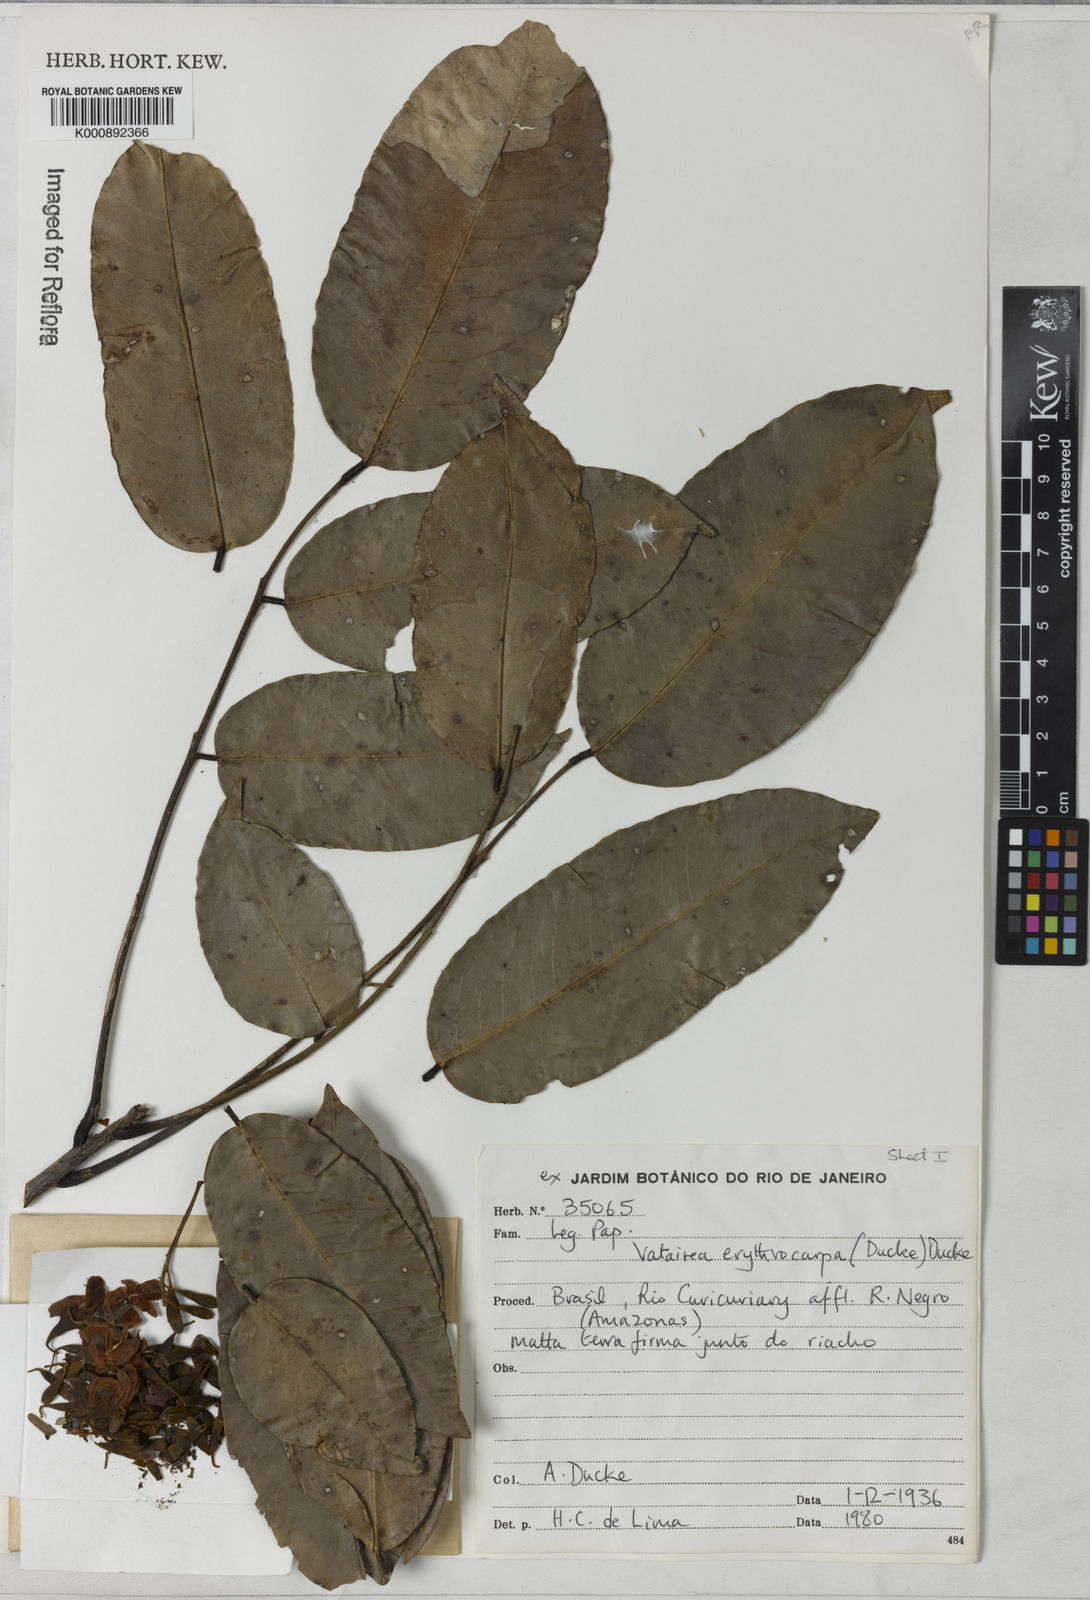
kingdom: Plantae
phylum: Tracheophyta
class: Magnoliopsida
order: Fabales
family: Fabaceae
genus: Vatairea
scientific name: Vatairea erythrocarpa
